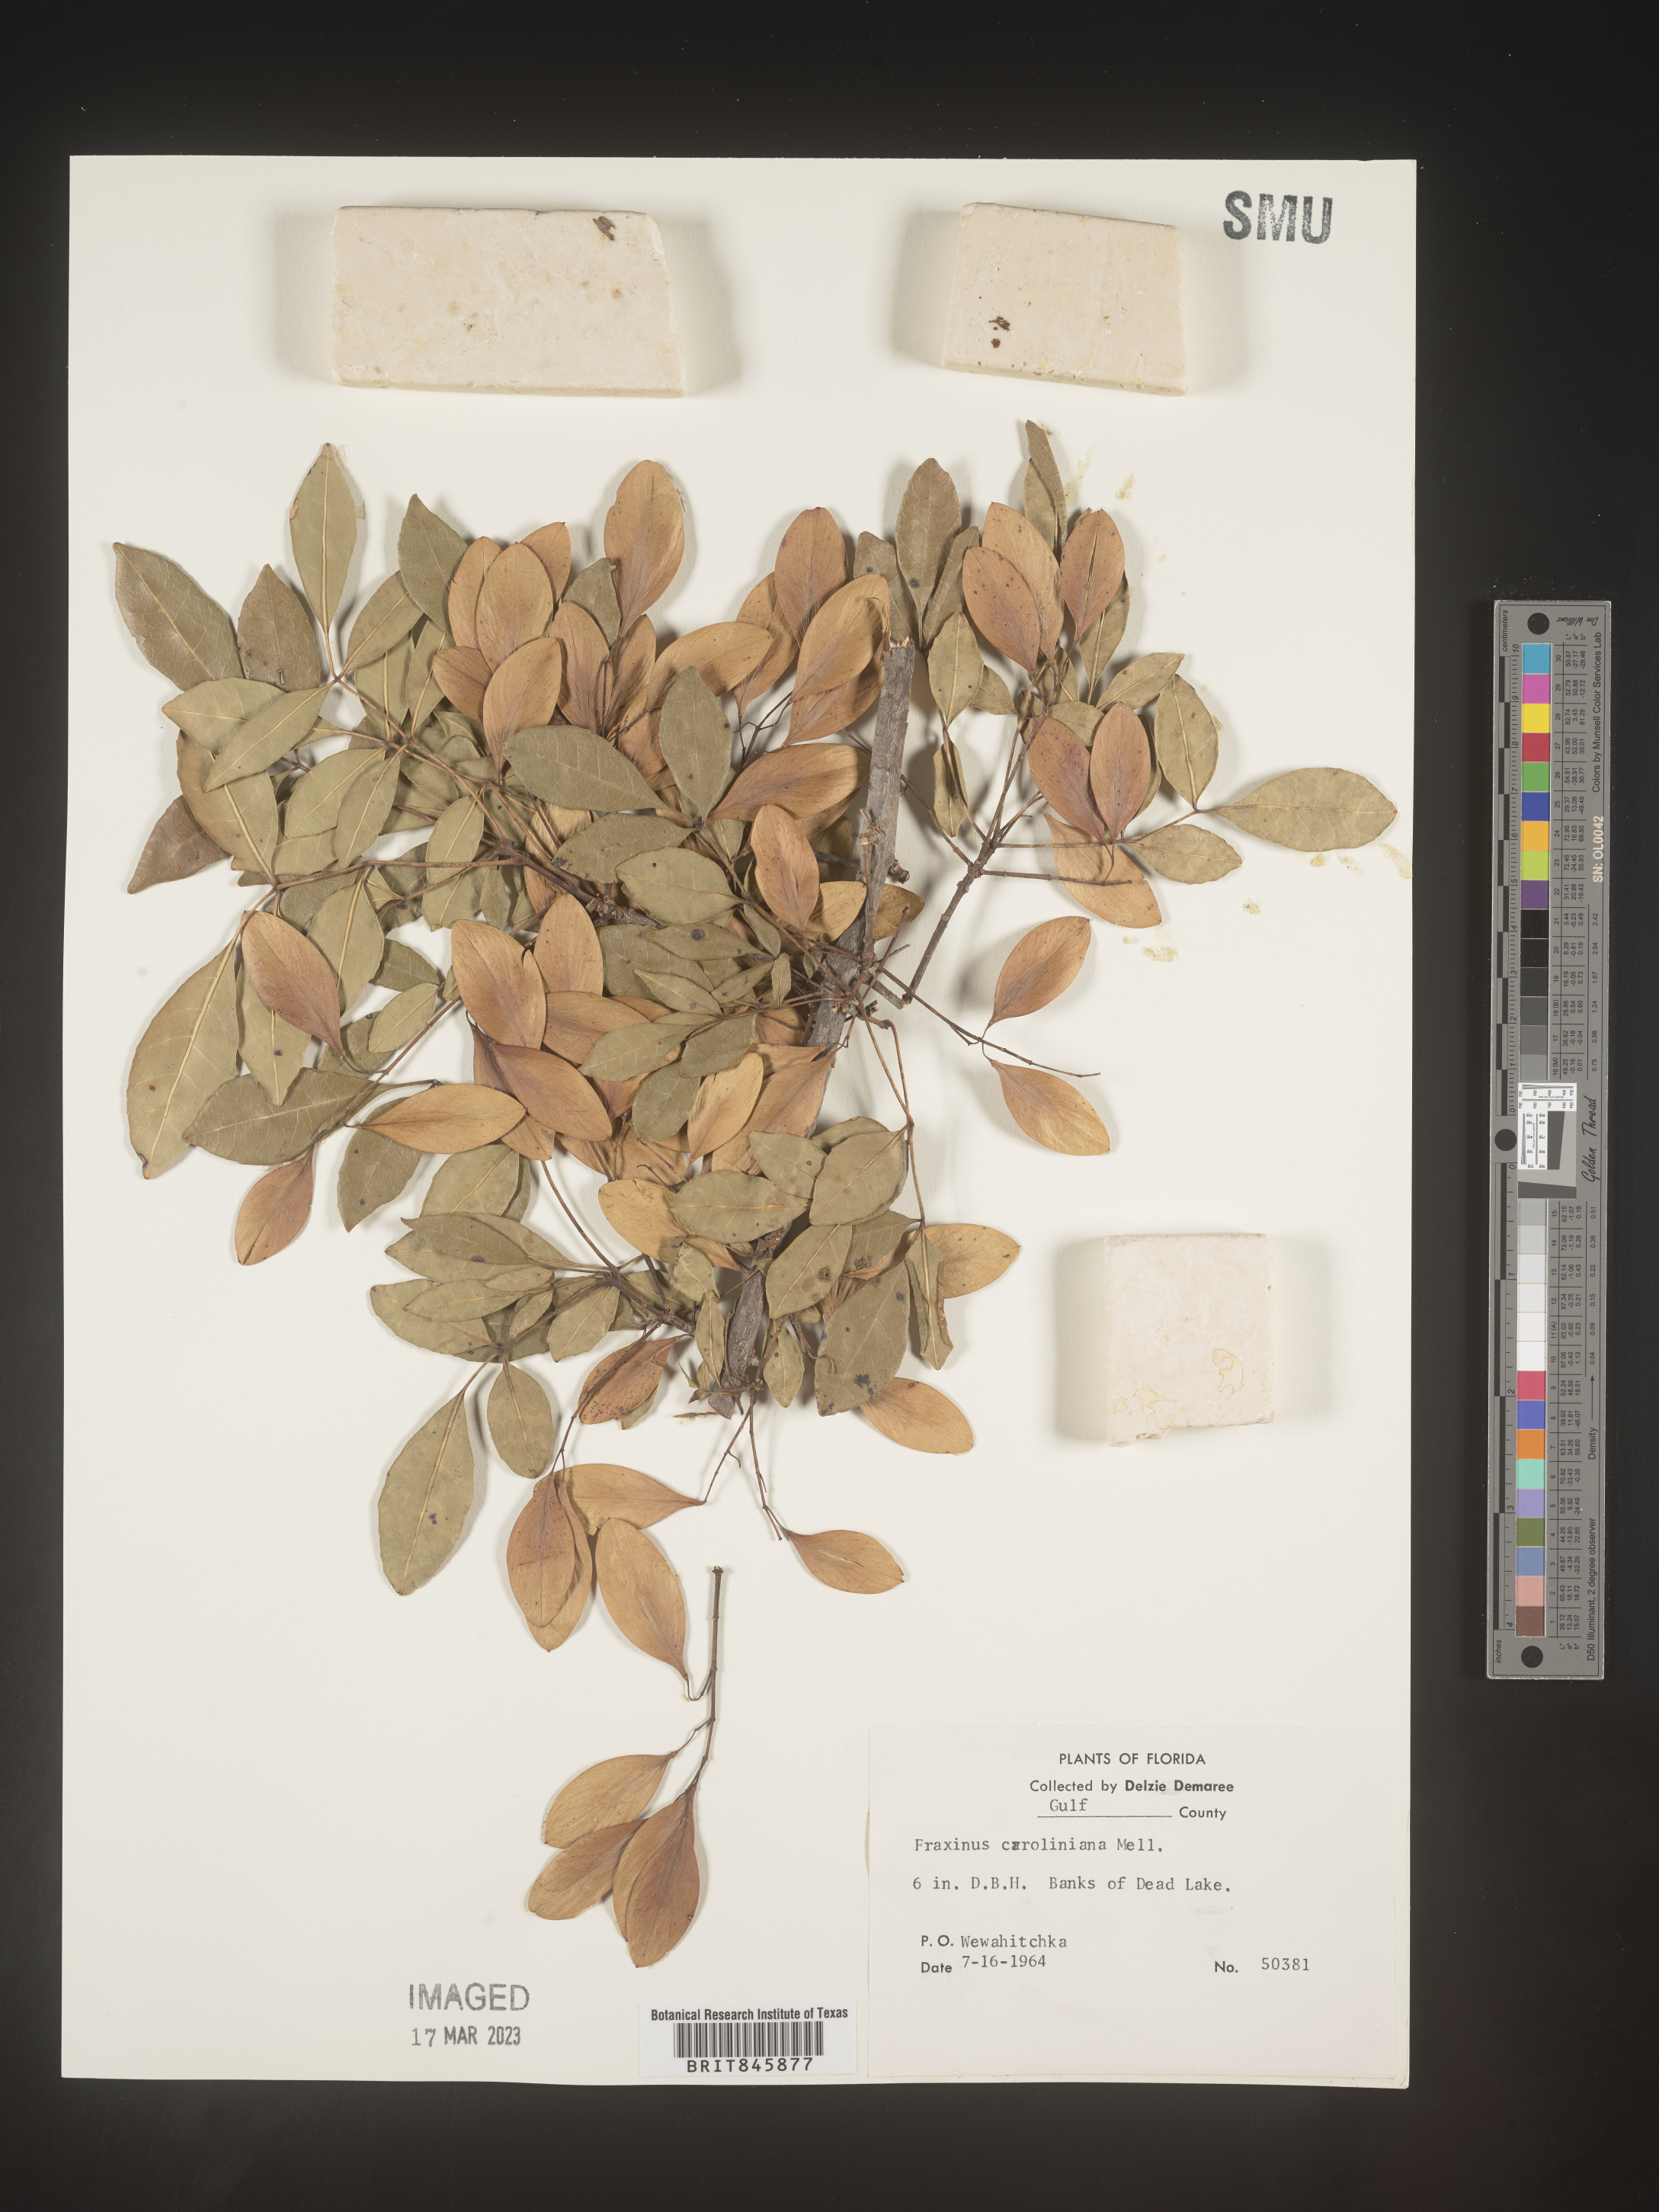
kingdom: Plantae
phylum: Tracheophyta
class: Magnoliopsida
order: Lamiales
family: Oleaceae
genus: Fraxinus
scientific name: Fraxinus caroliniana
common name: Carolina ash
